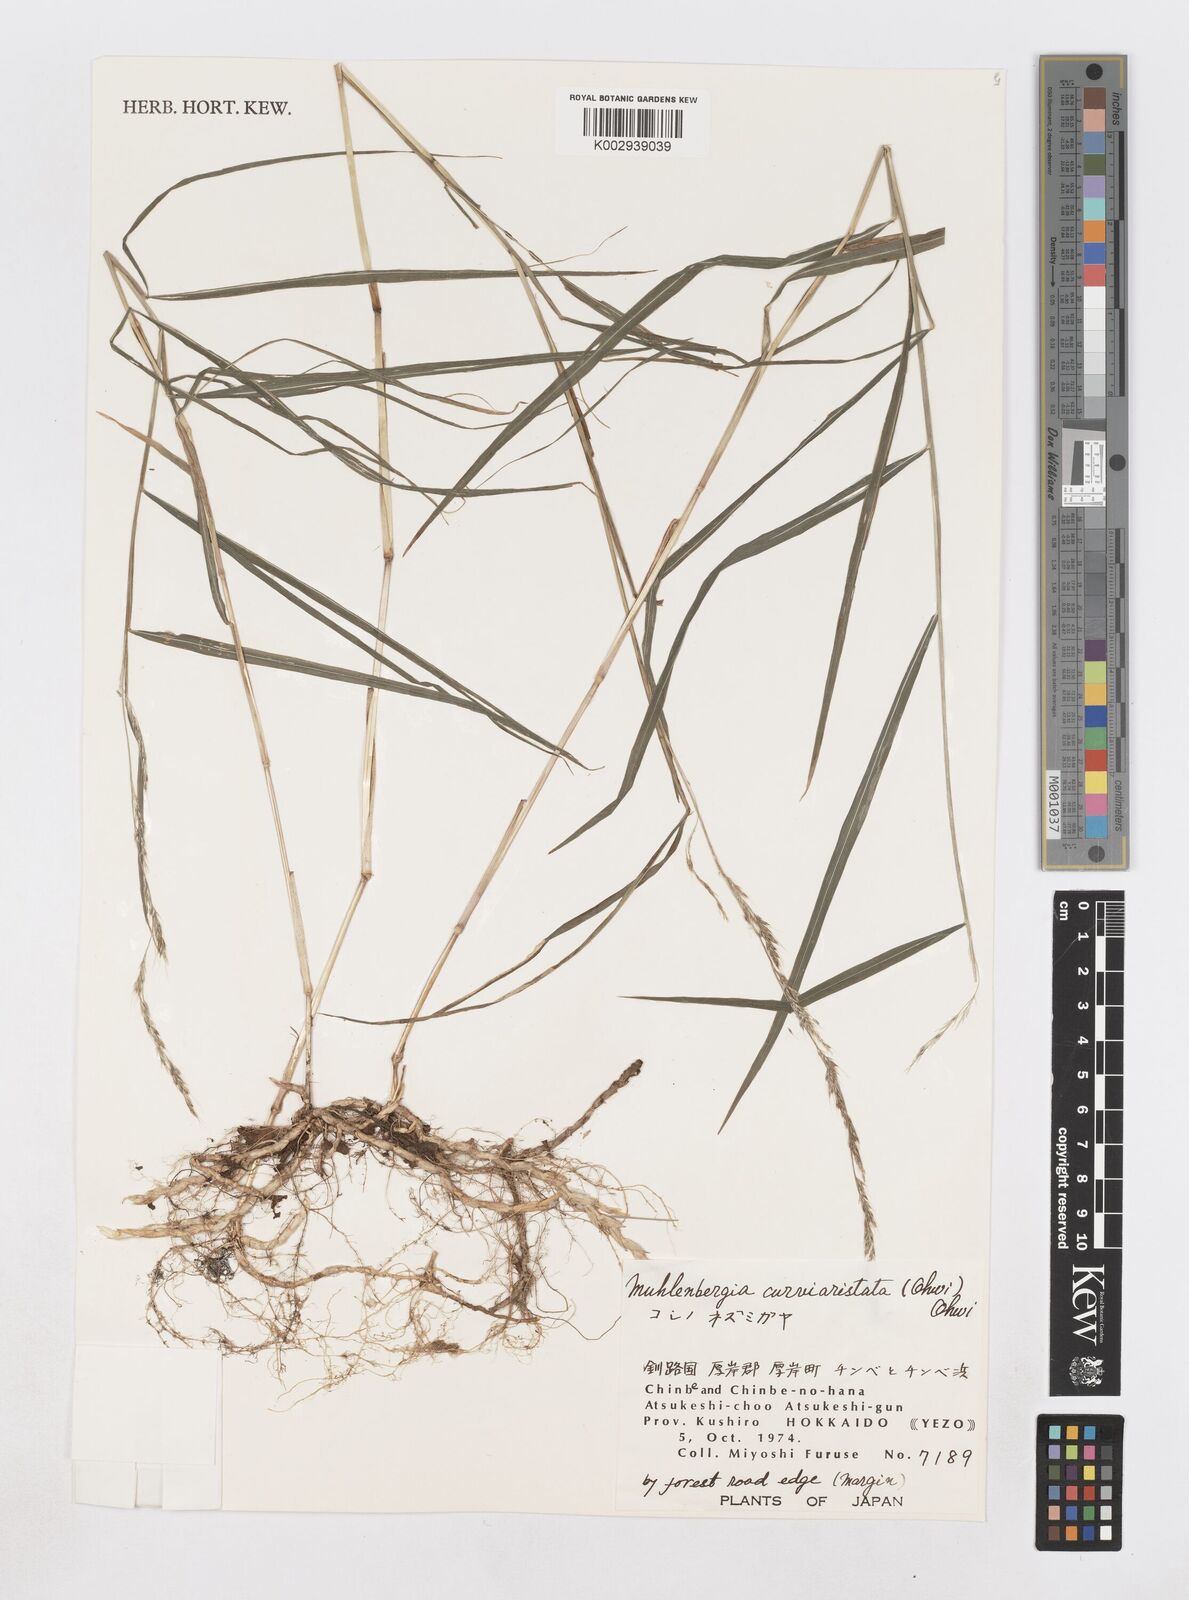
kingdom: Plantae
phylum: Tracheophyta
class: Liliopsida
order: Poales
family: Poaceae
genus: Muhlenbergia
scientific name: Muhlenbergia curviaristata
